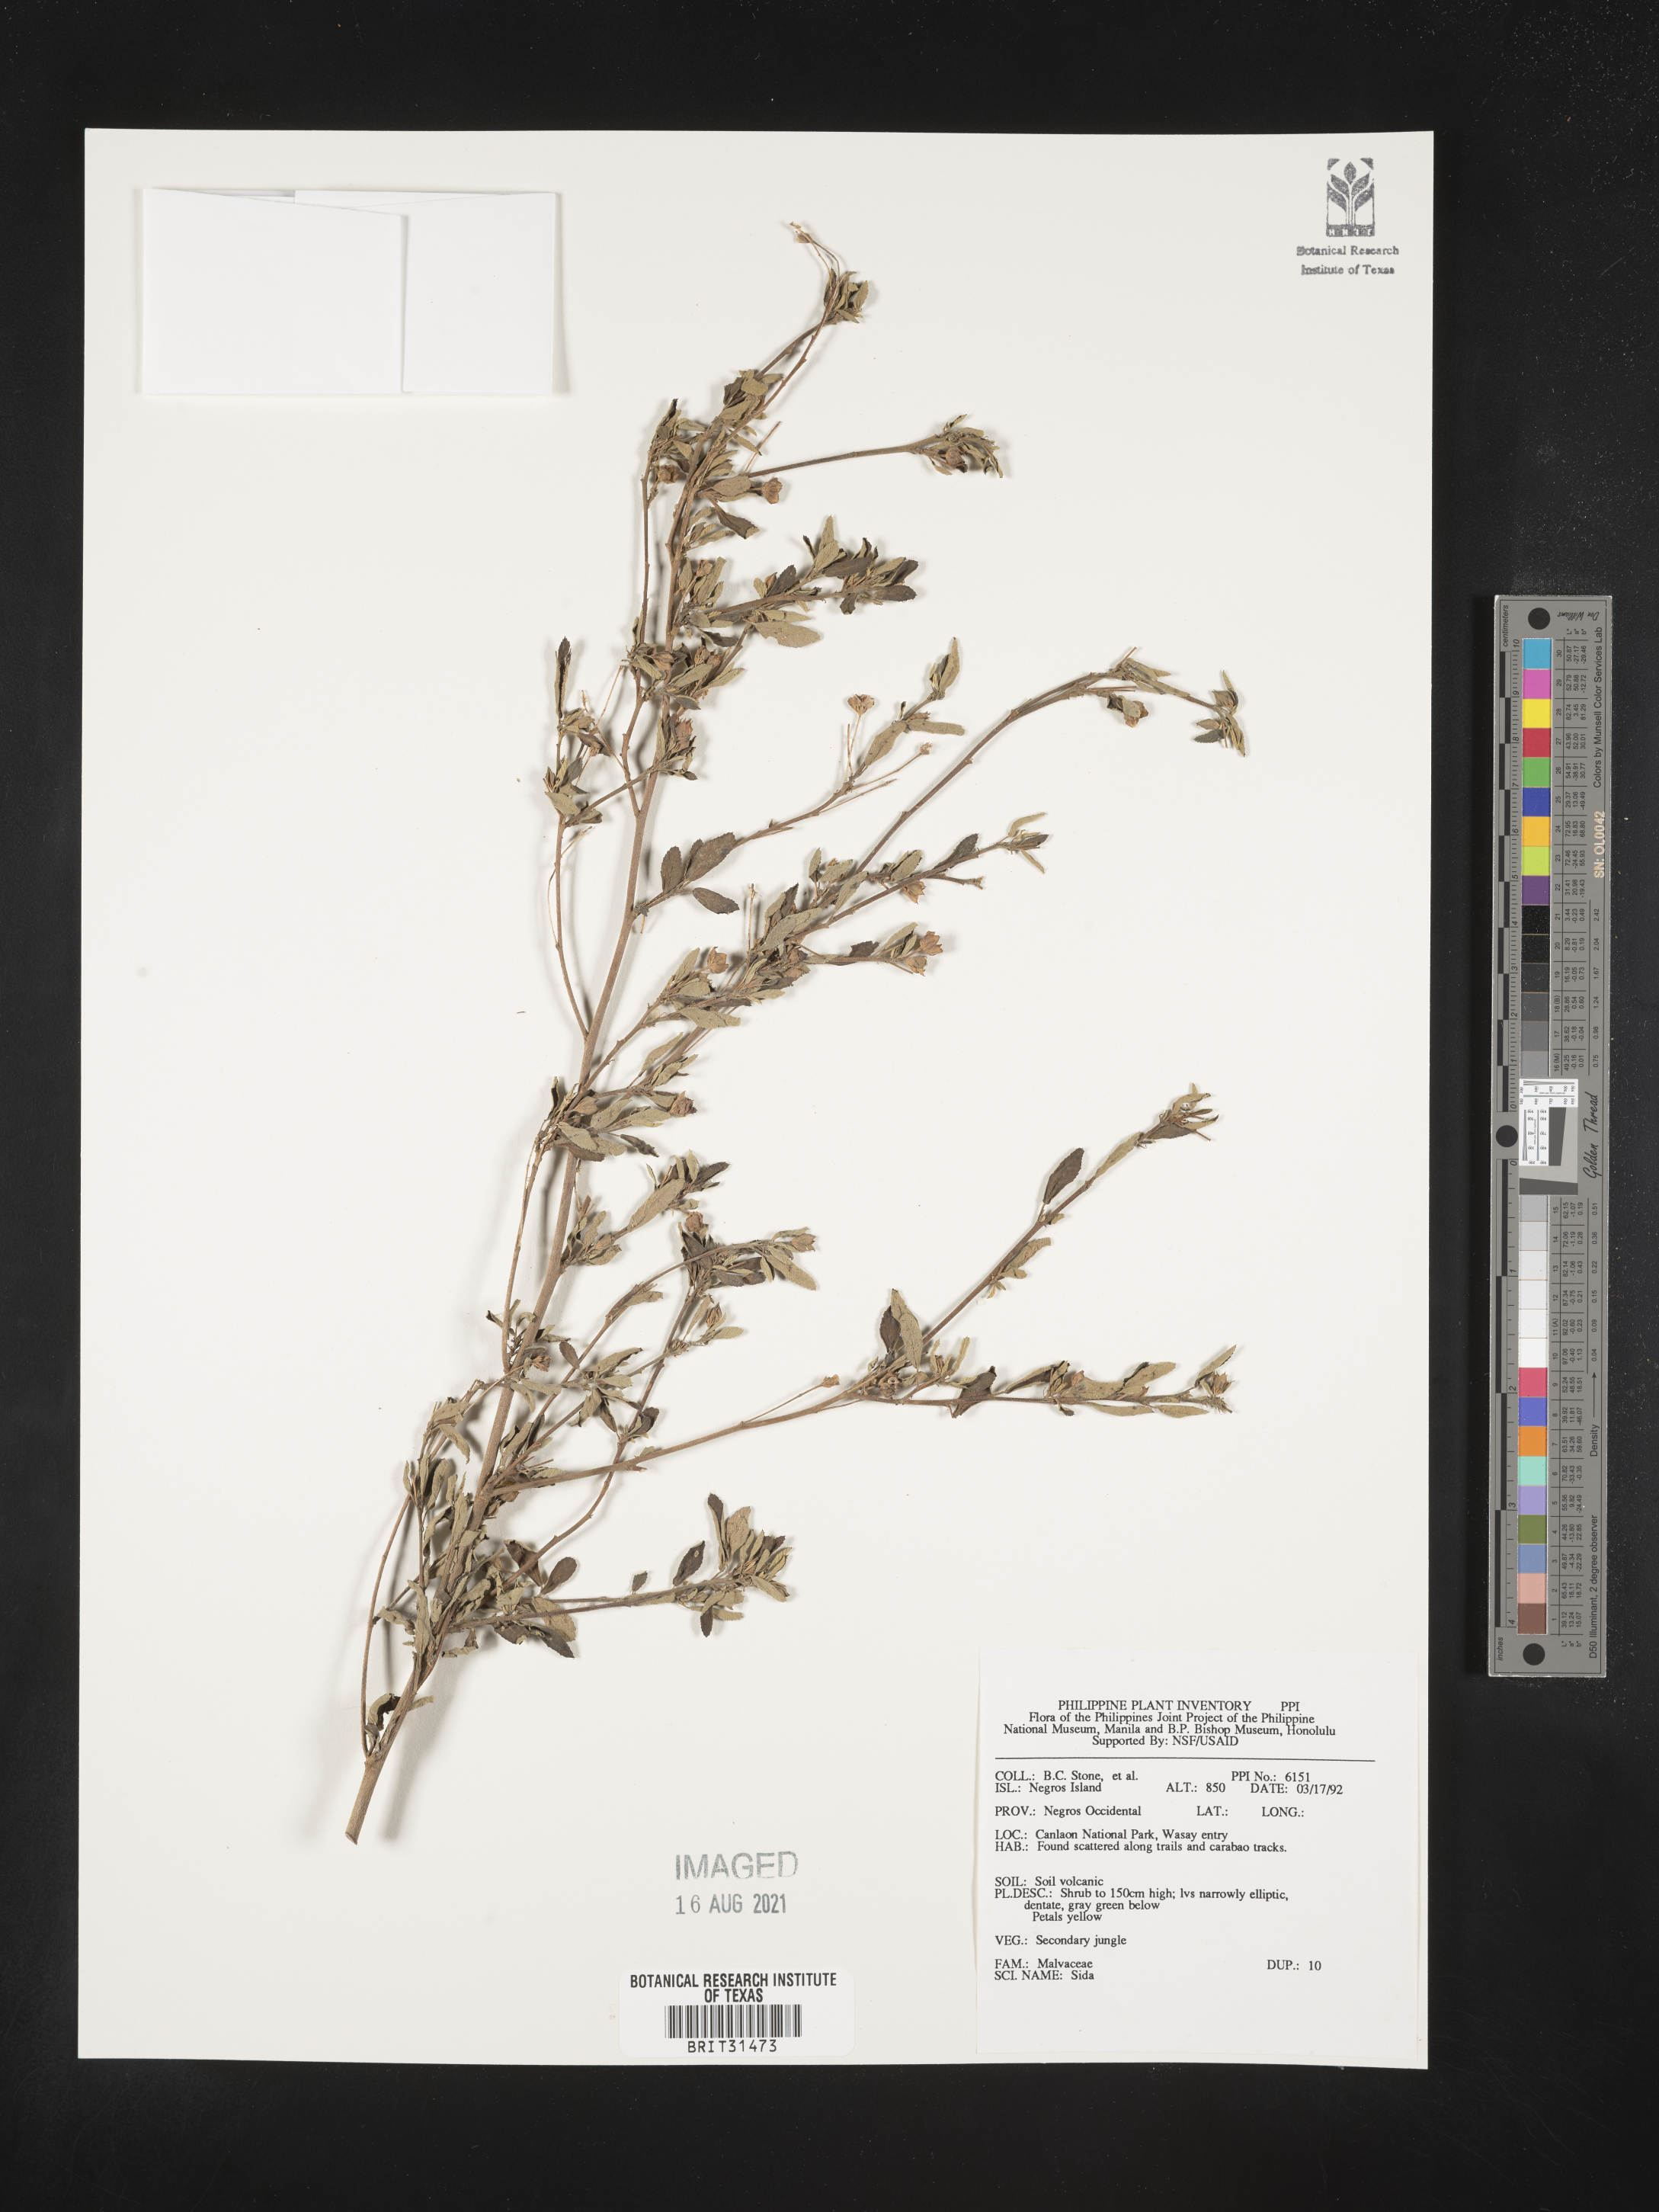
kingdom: Plantae
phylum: Tracheophyta
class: Magnoliopsida
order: Malvales
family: Malvaceae
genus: Sida
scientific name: Sida
